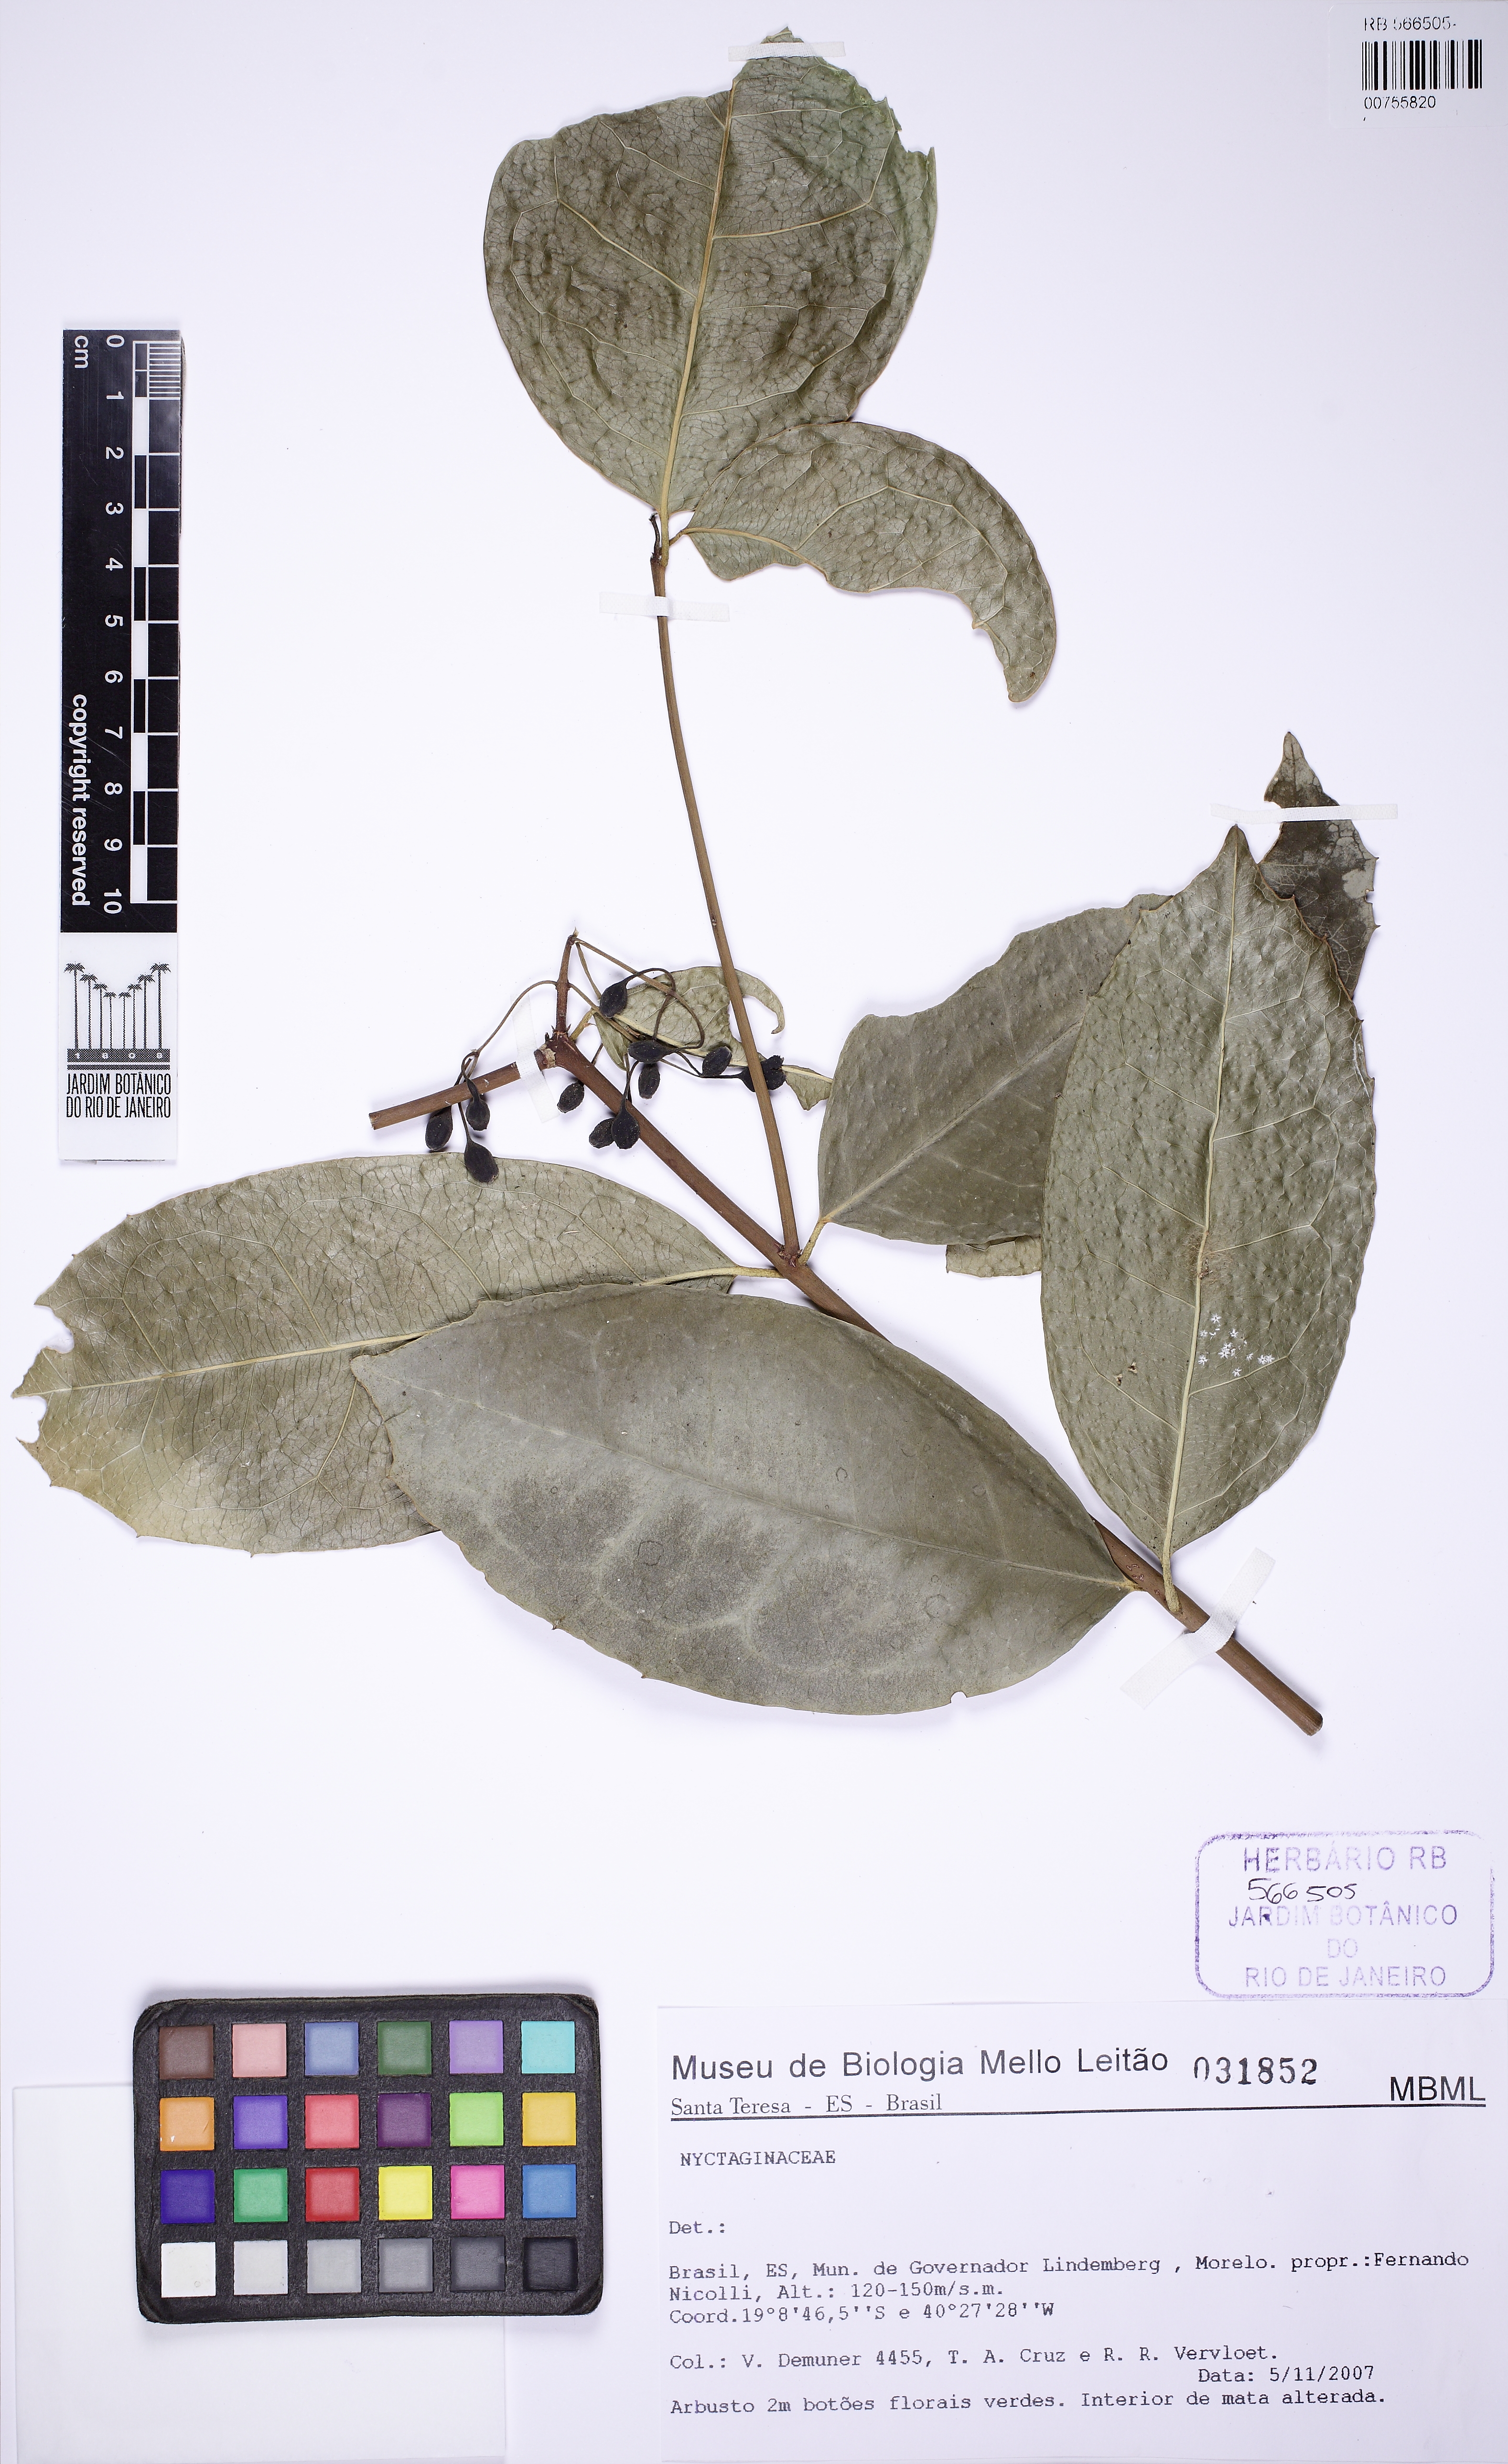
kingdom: Plantae
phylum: Tracheophyta
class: Magnoliopsida
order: Laurales
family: Monimiaceae
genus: Macrotorus
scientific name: Macrotorus utriculatus
